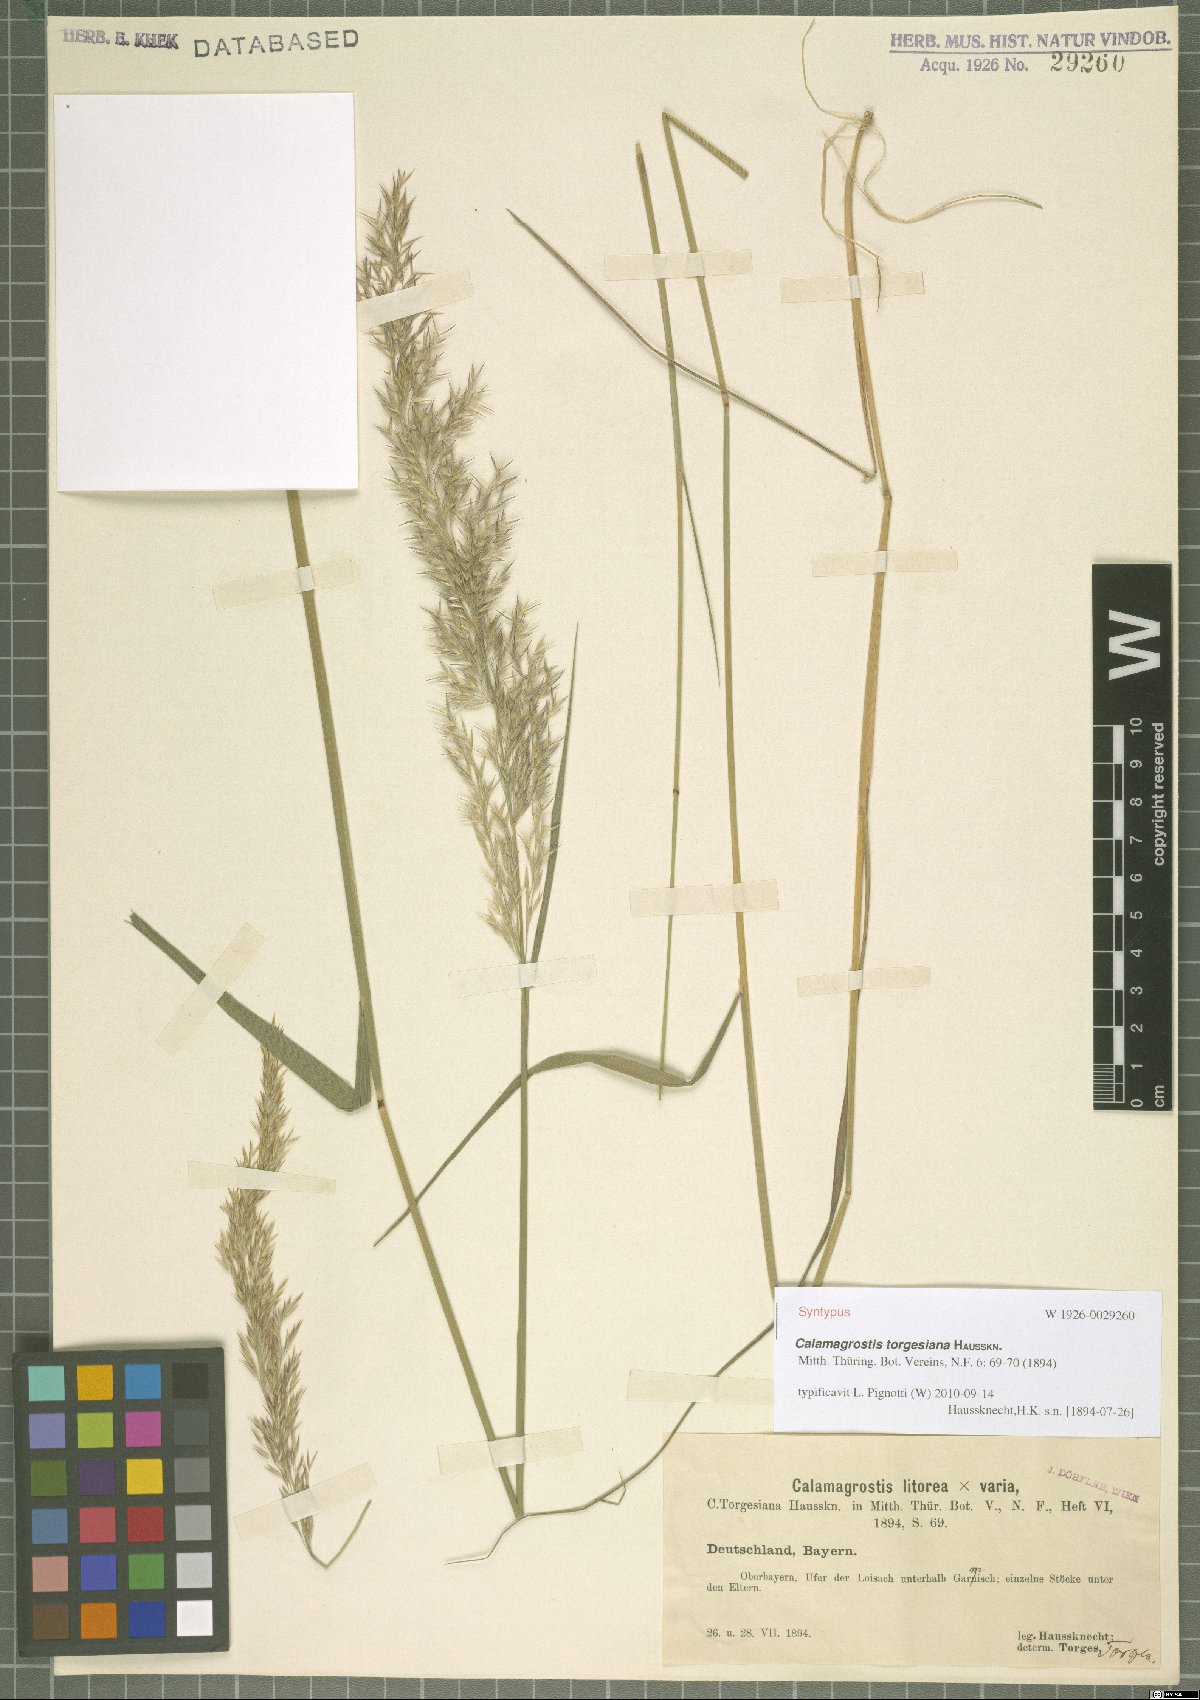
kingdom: Plantae
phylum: Tracheophyta
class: Liliopsida
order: Poales
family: Poaceae
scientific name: Poaceae
